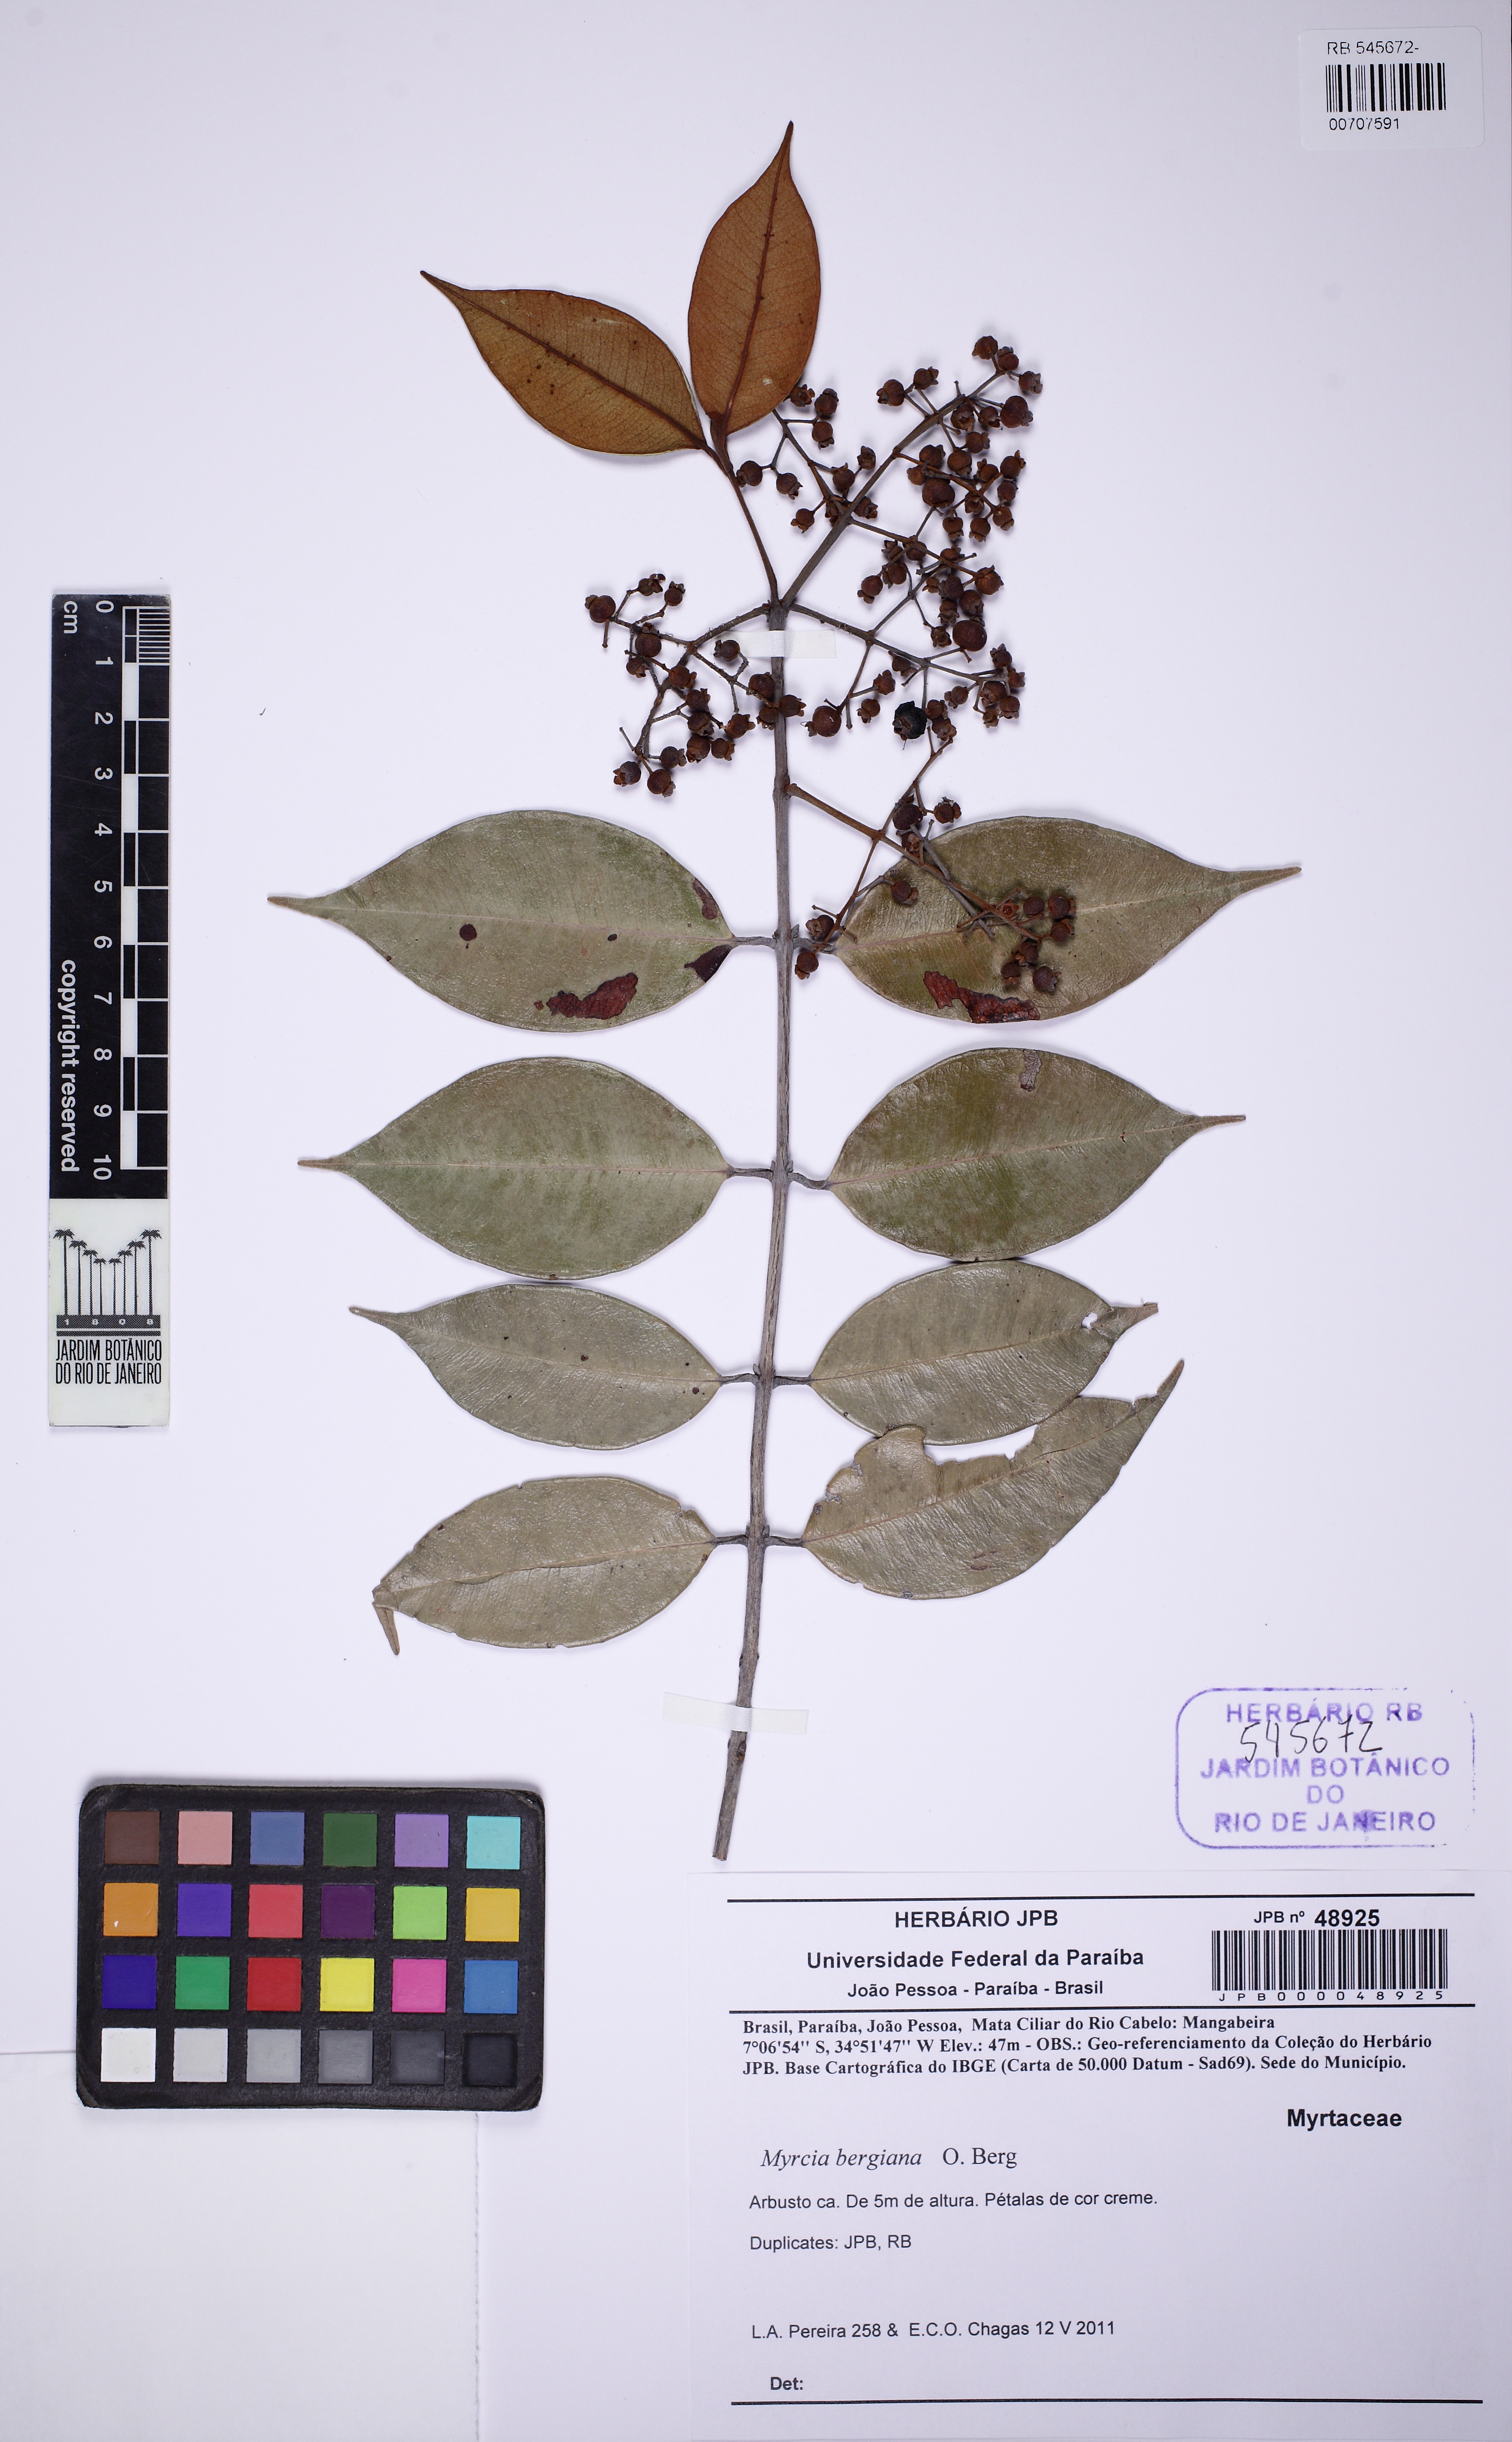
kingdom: Plantae
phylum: Tracheophyta
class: Magnoliopsida
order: Myrtales
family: Myrtaceae
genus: Myrcia
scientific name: Myrcia bergiana
